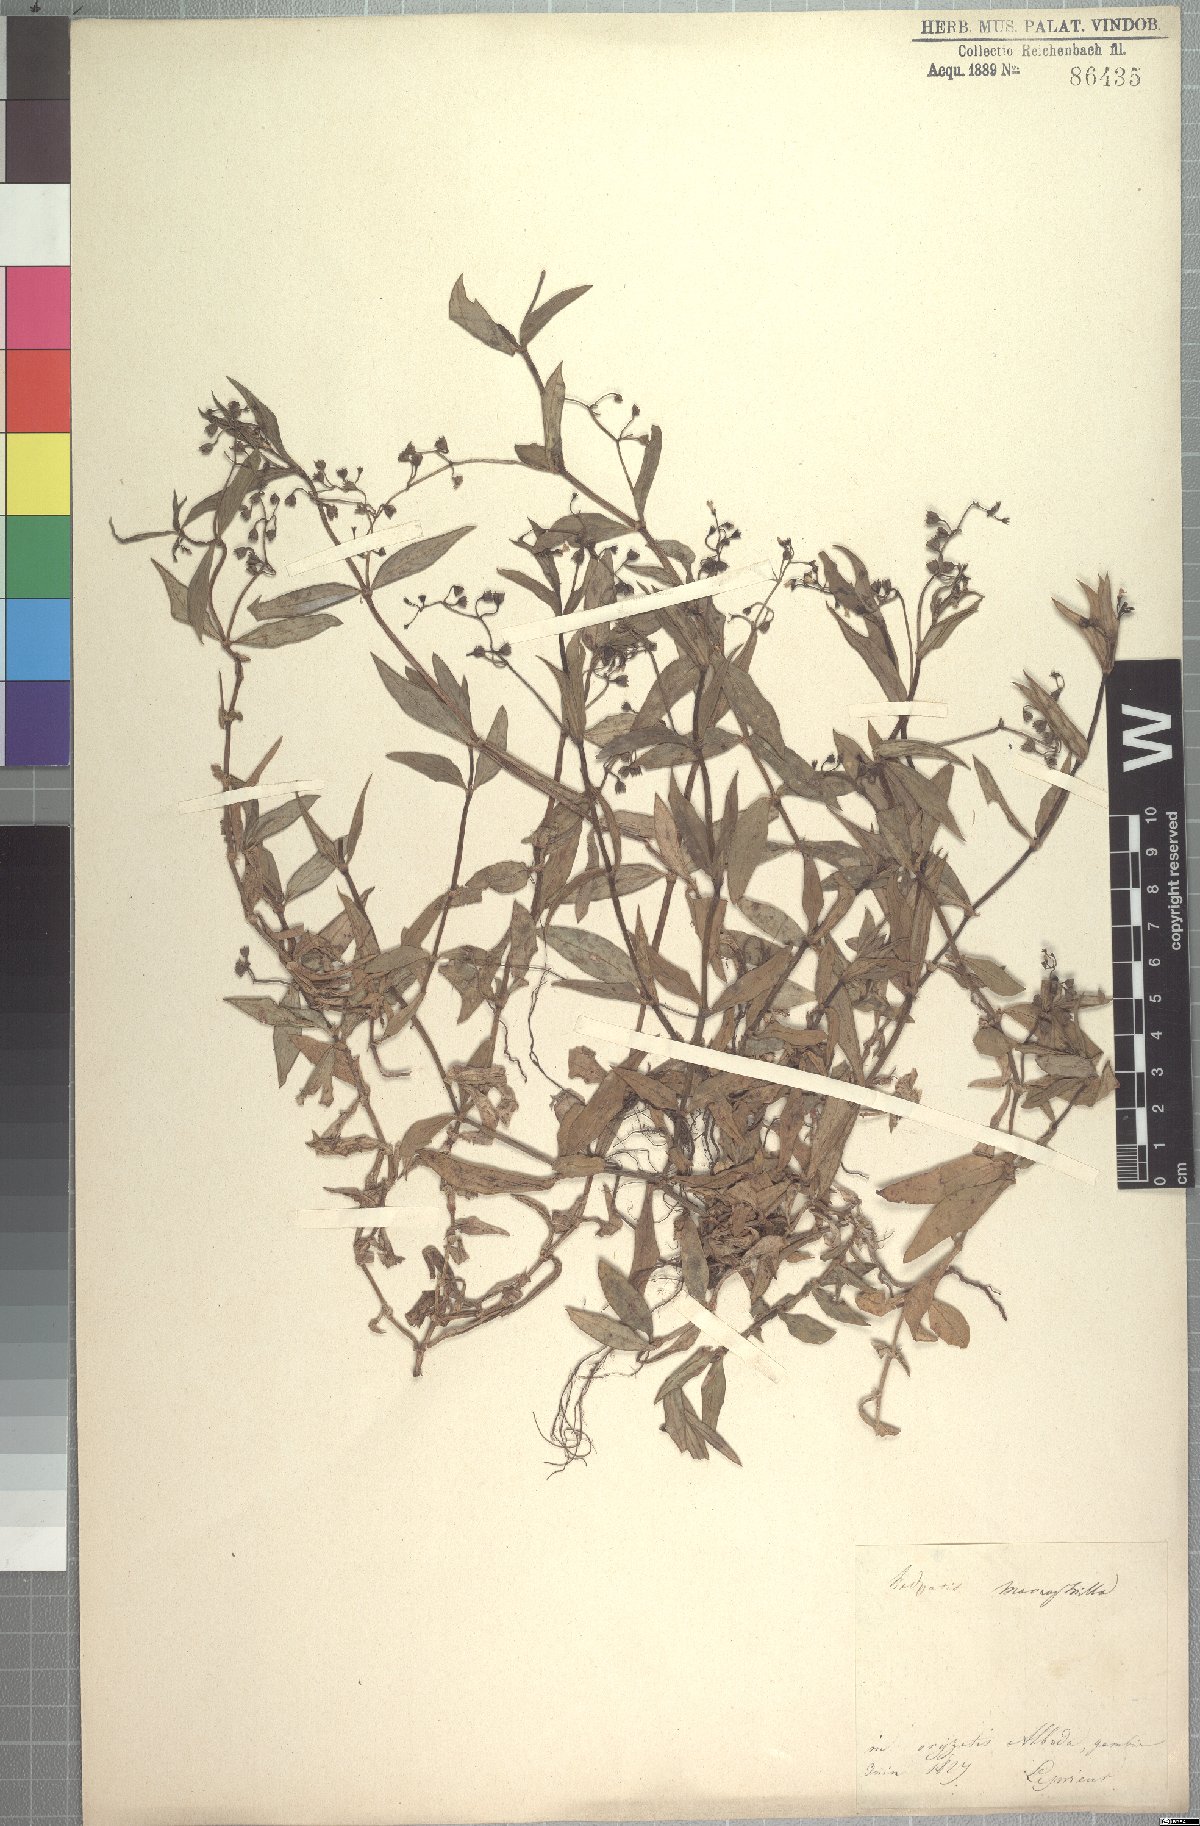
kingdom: Plantae
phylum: Tracheophyta
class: Magnoliopsida
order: Gentianales
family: Rubiaceae
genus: Pentodon
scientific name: Pentodon pentandrus
